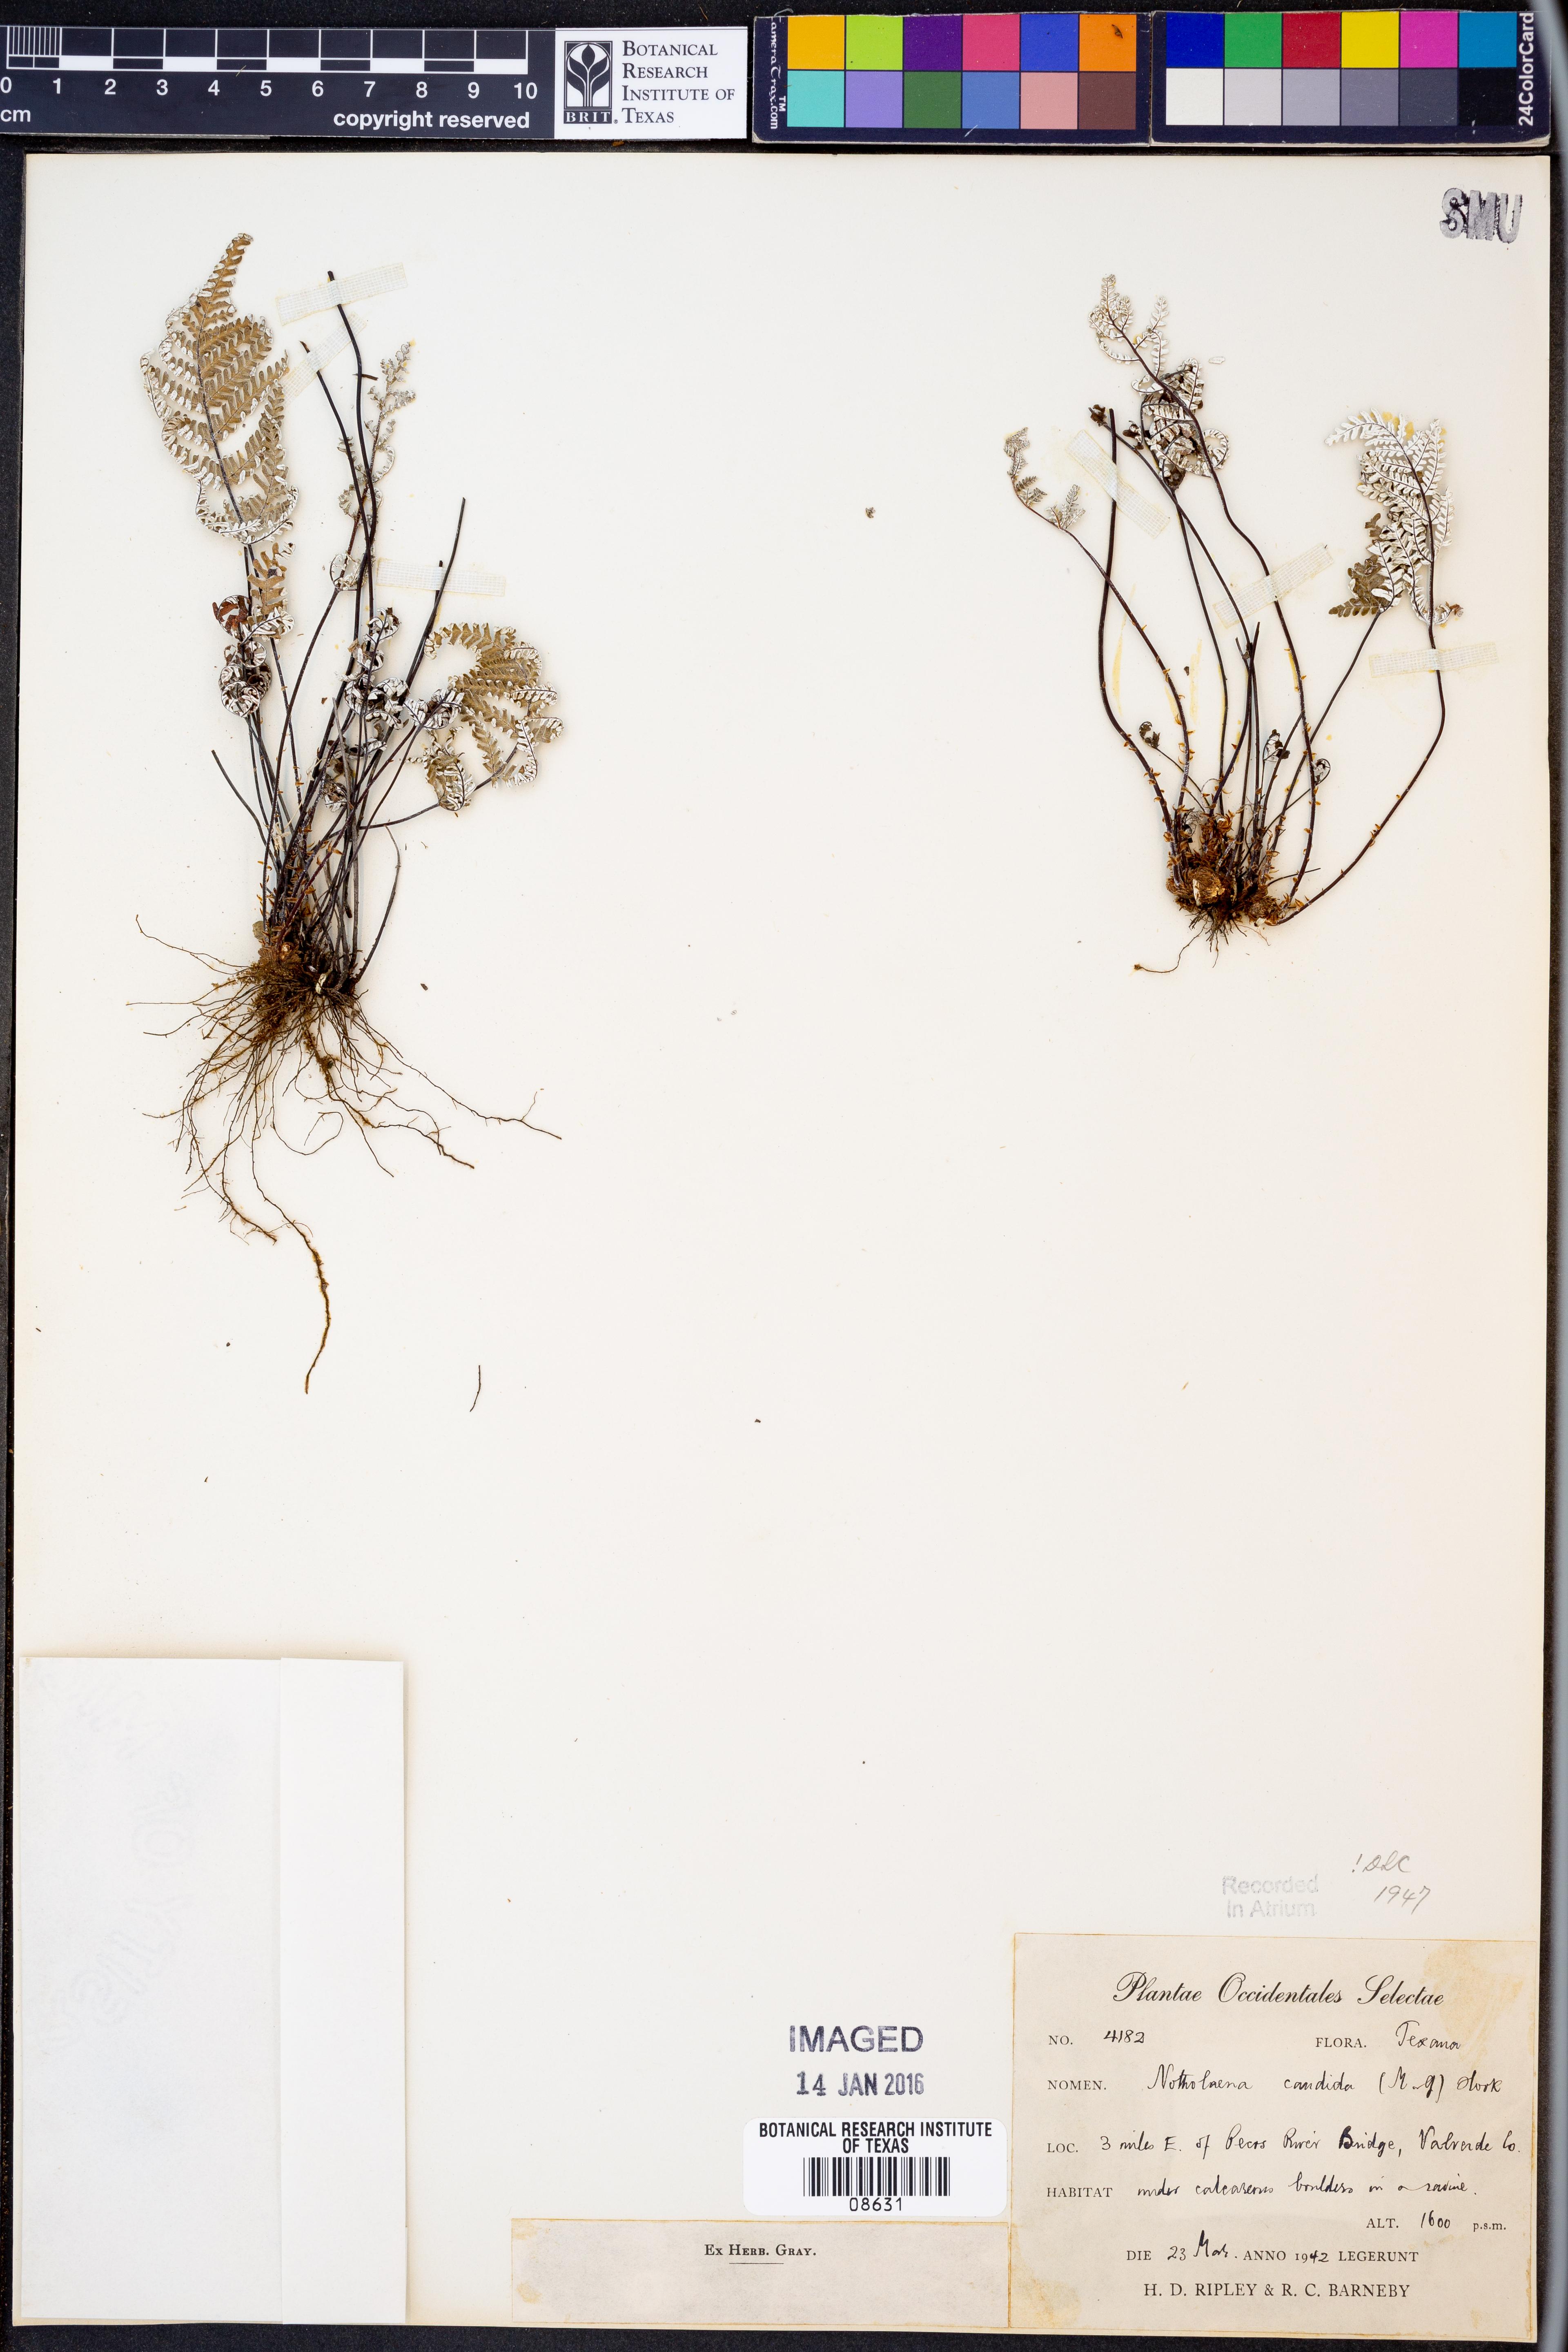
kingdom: Plantae
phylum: Tracheophyta
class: Polypodiopsida
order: Polypodiales
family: Pteridaceae
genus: Notholaena
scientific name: Notholaena candida
